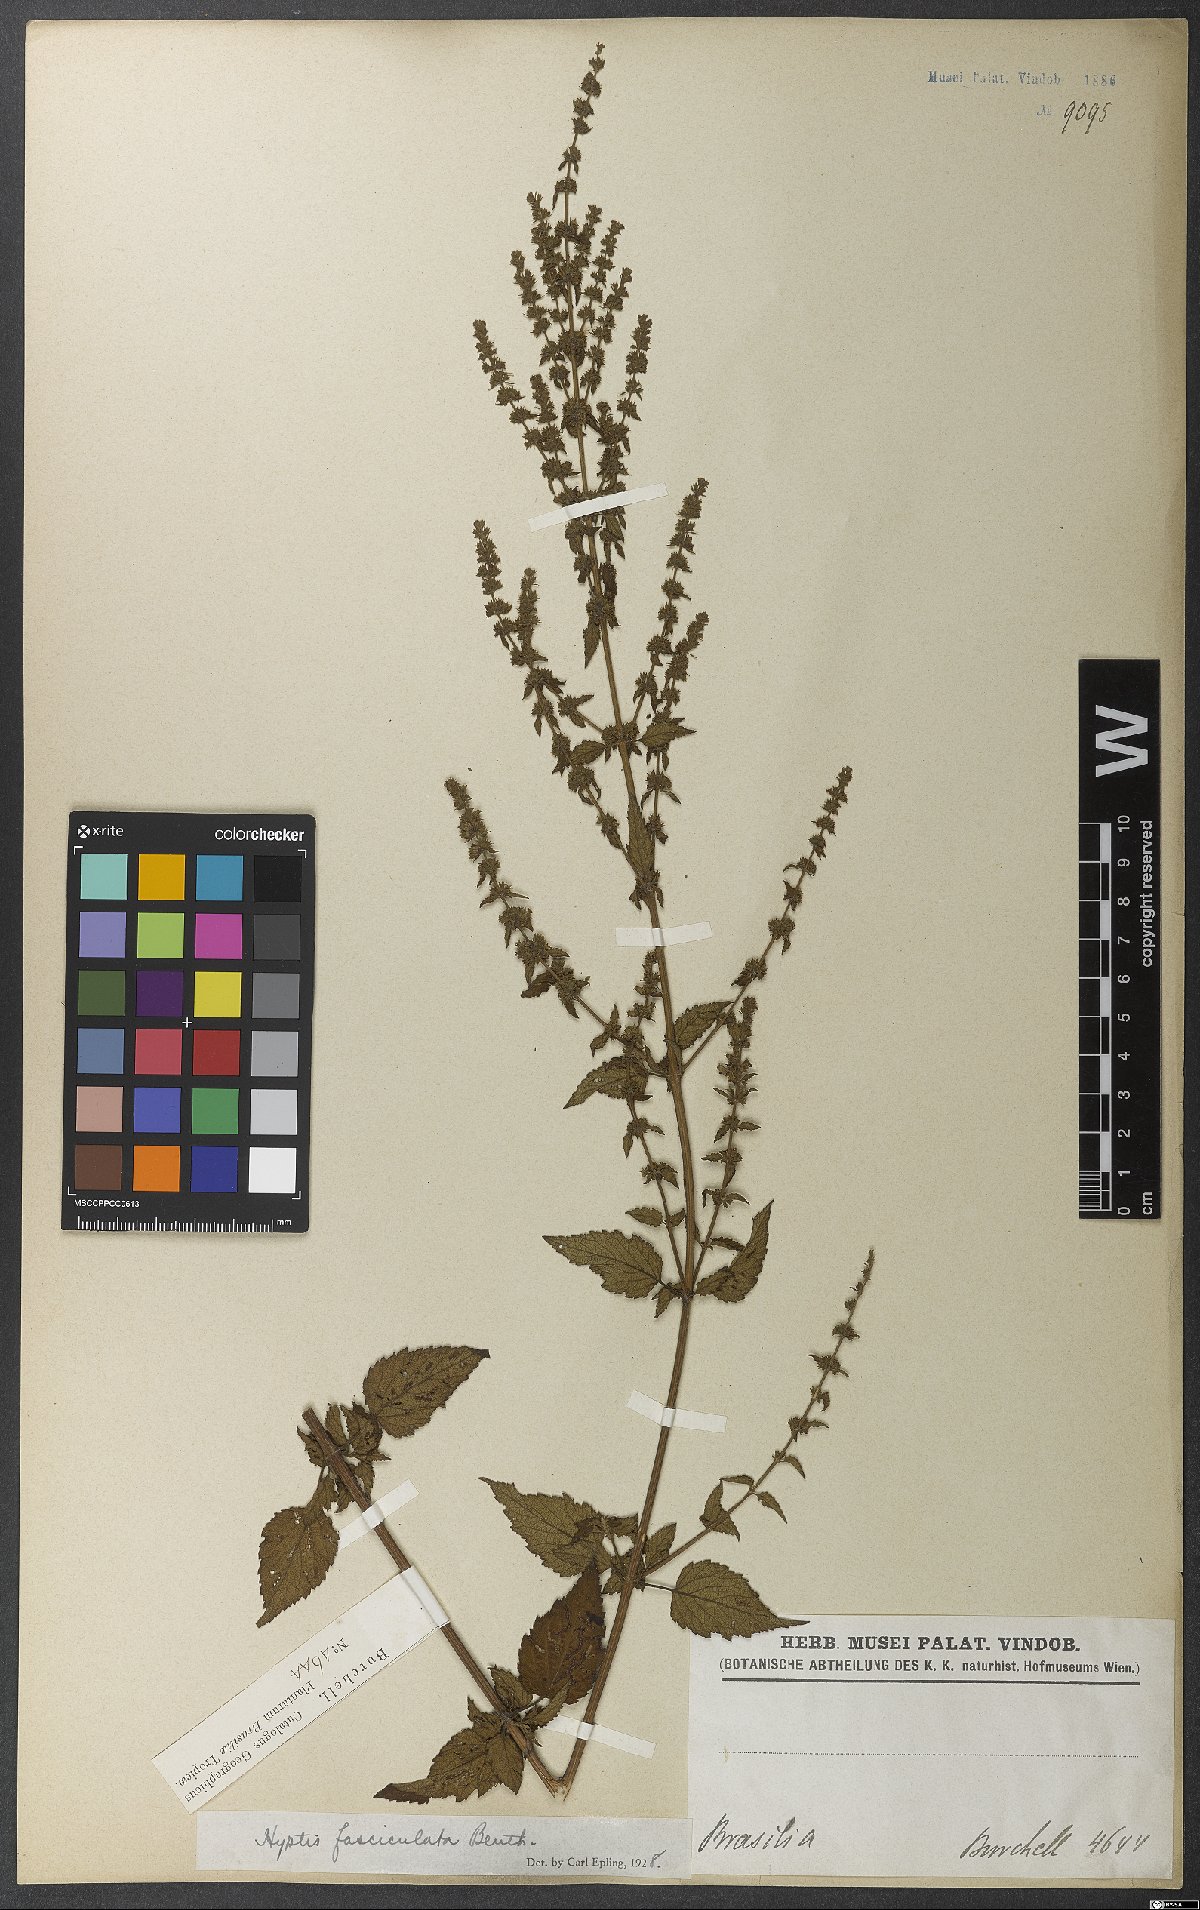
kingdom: Plantae
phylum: Tracheophyta
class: Magnoliopsida
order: Lamiales
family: Lamiaceae
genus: Condea
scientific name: Condea undulata
